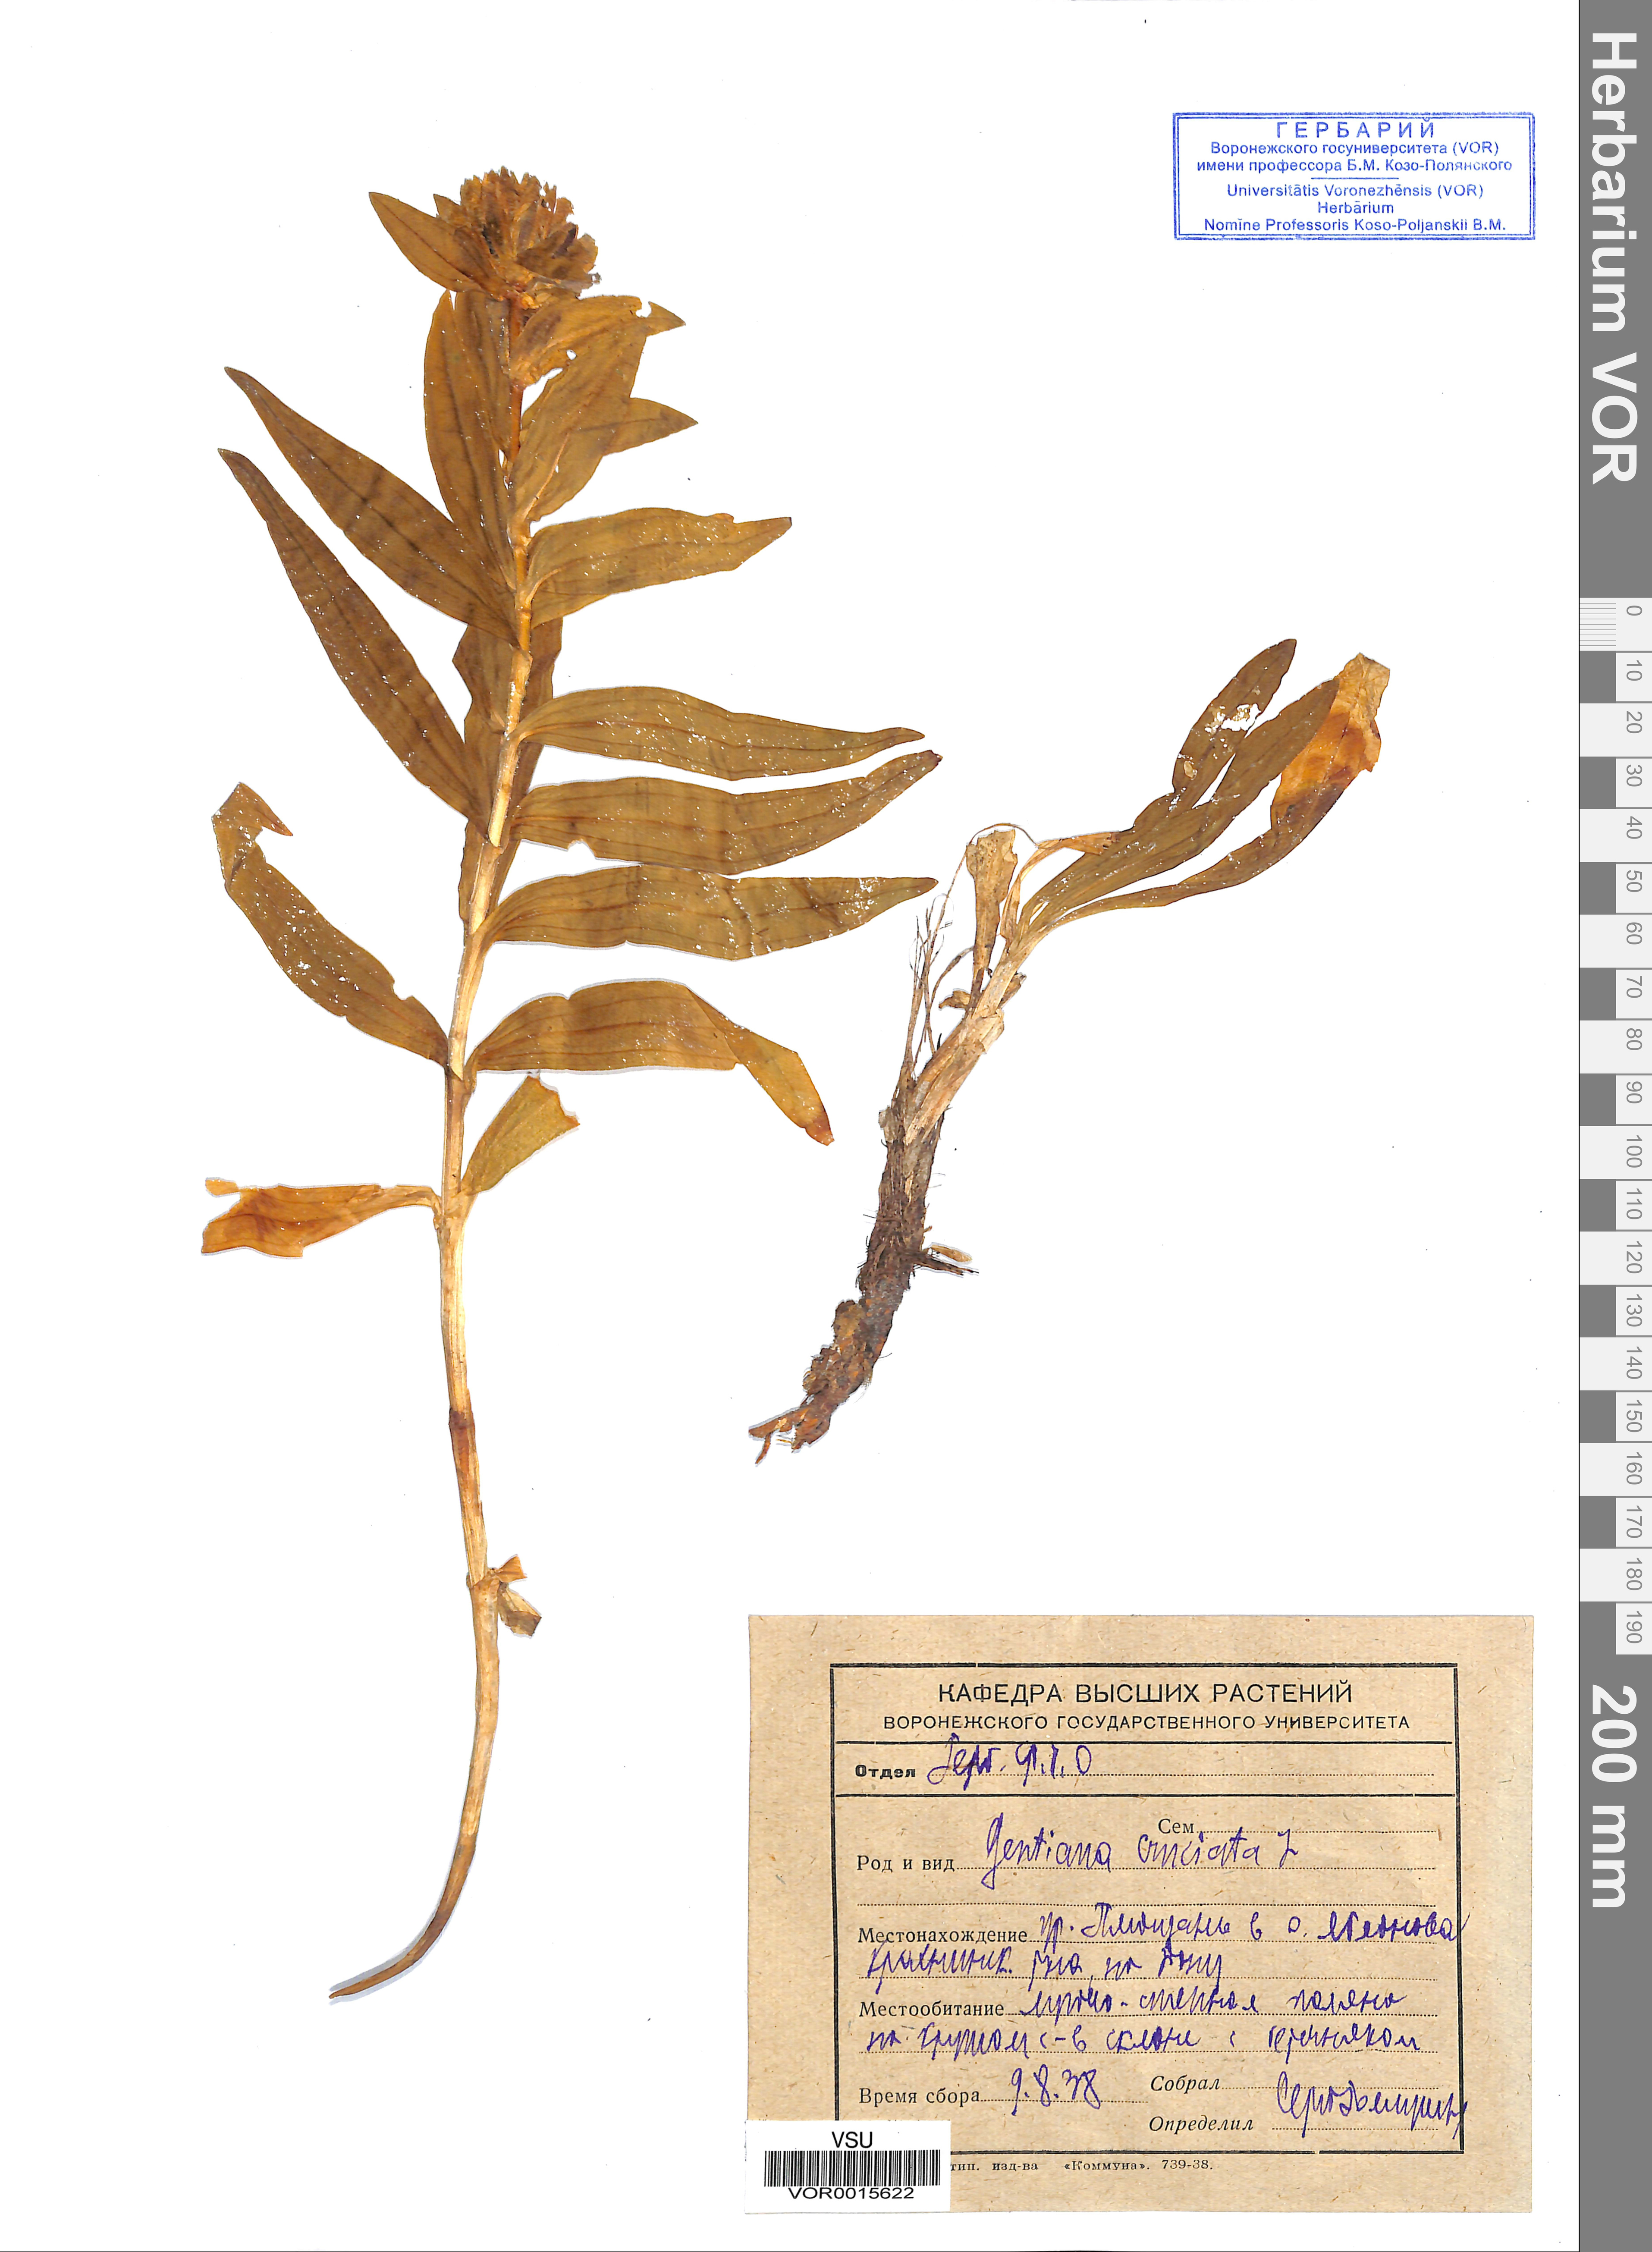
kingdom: Plantae
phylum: Tracheophyta
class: Magnoliopsida
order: Gentianales
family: Gentianaceae
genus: Gentiana
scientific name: Gentiana cruciata
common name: Cross gentian
